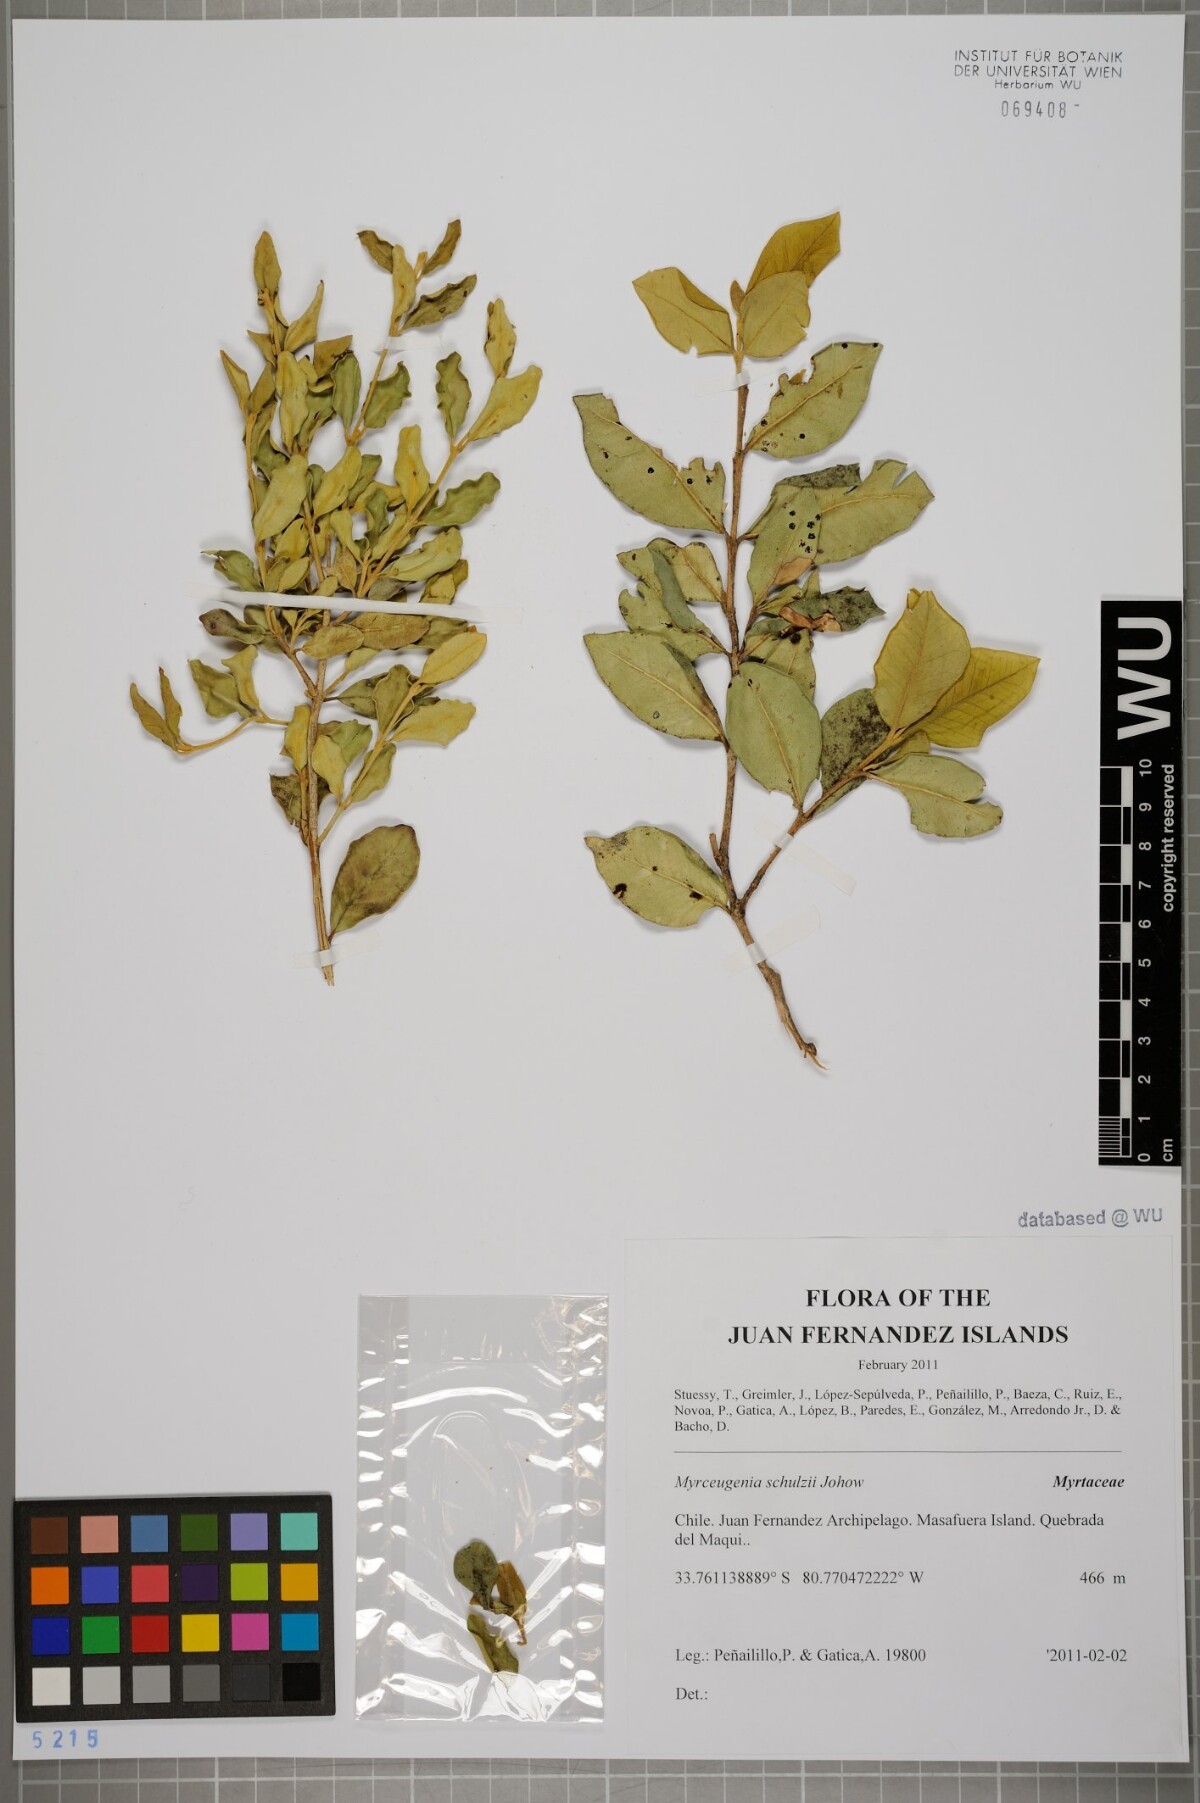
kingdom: Plantae
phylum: Tracheophyta
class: Magnoliopsida
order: Myrtales
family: Myrtaceae
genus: Myrceugenia
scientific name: Myrceugenia schulzei
